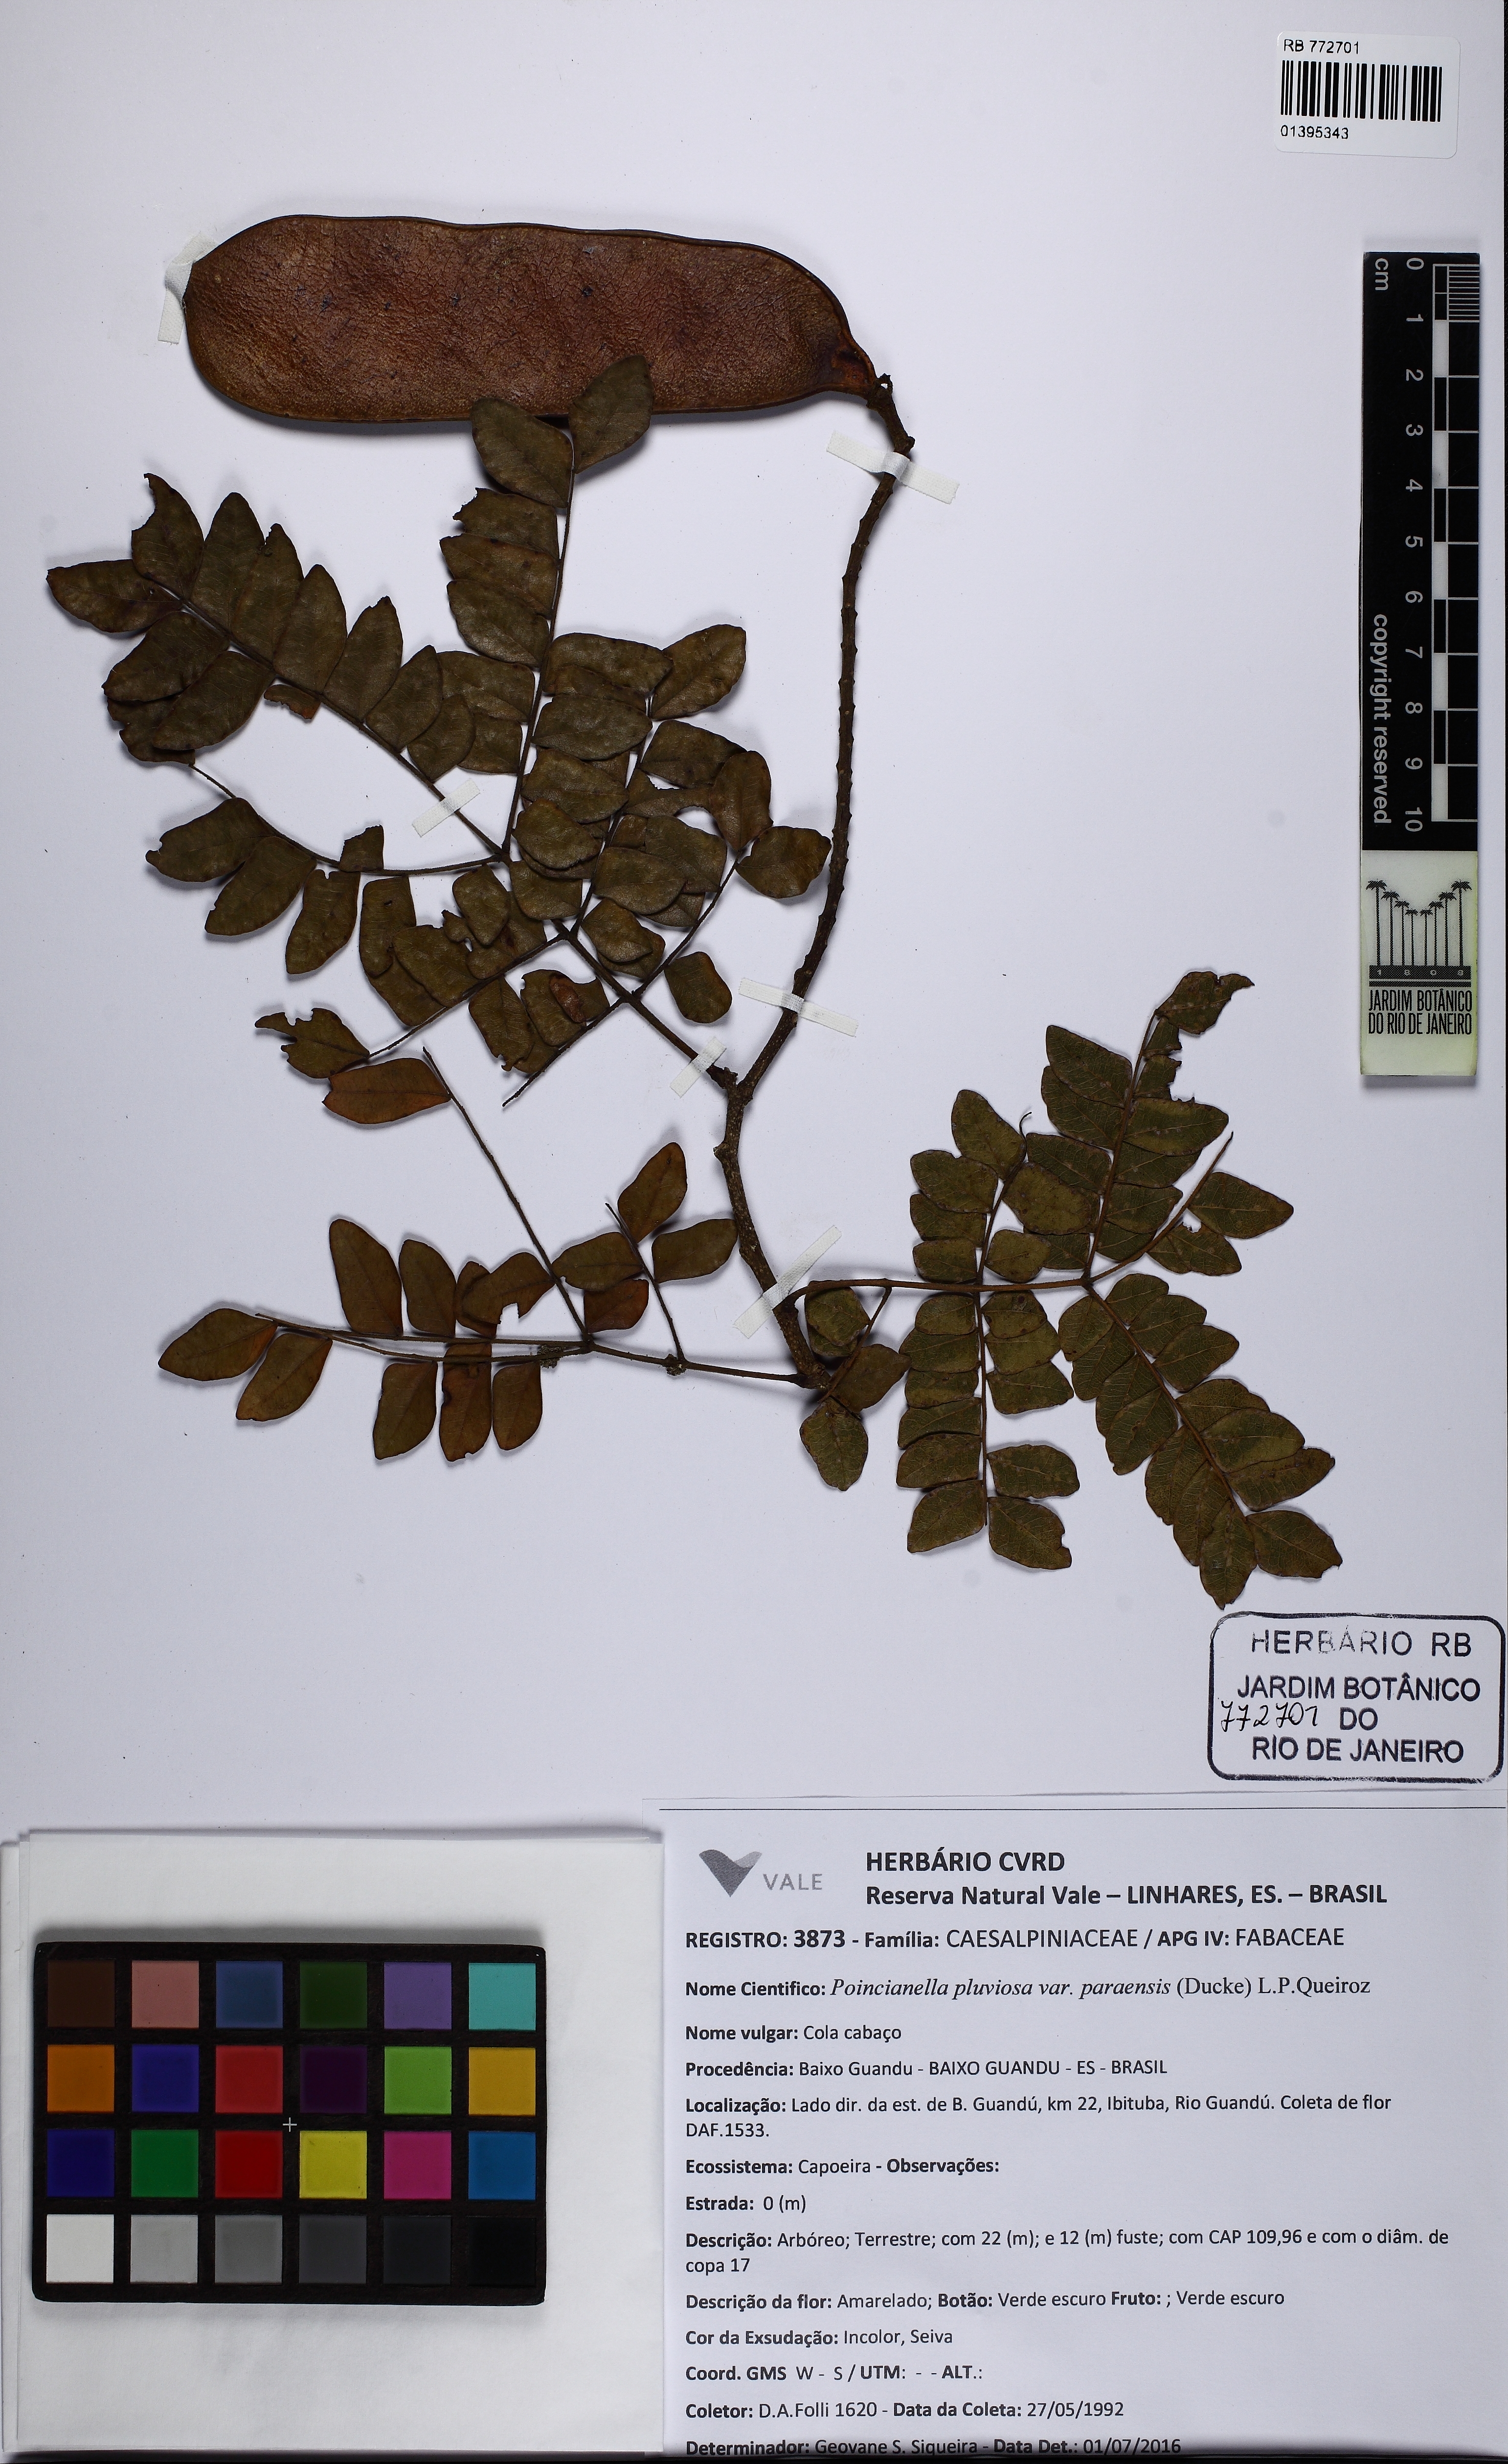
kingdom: Plantae
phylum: Tracheophyta
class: Magnoliopsida
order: Fabales
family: Fabaceae
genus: Cenostigma
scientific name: Cenostigma pluviosum
